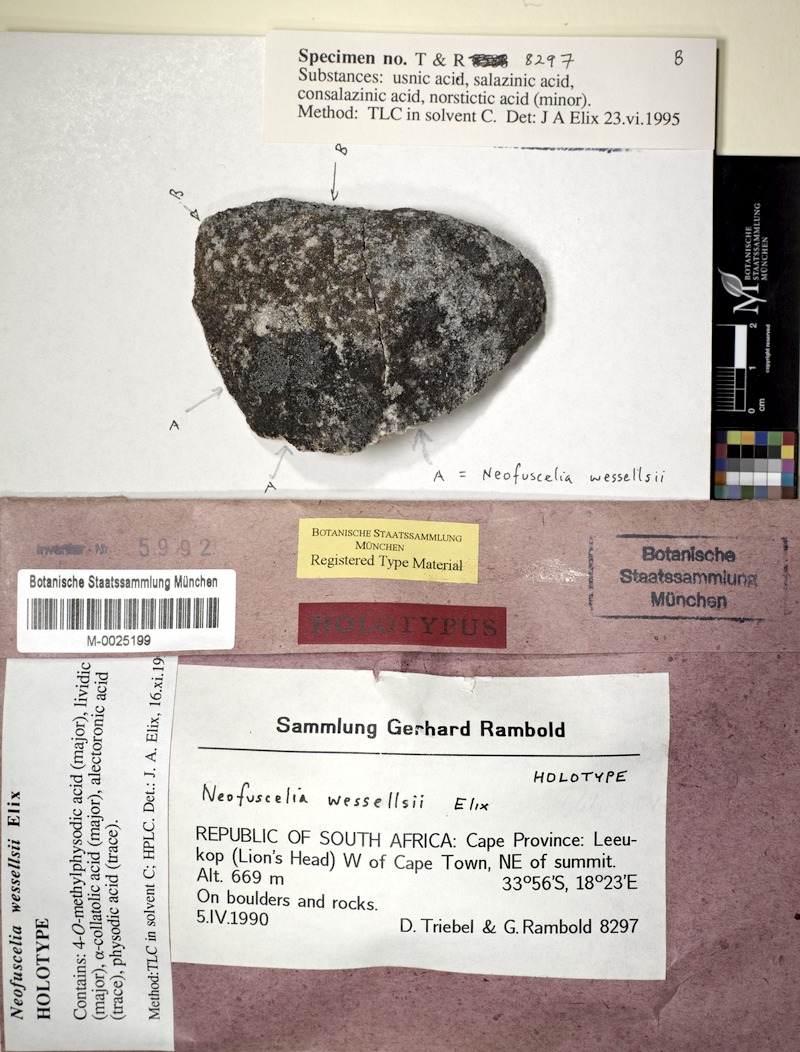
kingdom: Fungi
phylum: Ascomycota
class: Lecanoromycetes
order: Lecanorales
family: Parmeliaceae
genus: Xanthoparmelia
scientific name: Xanthoparmelia hensseniae
